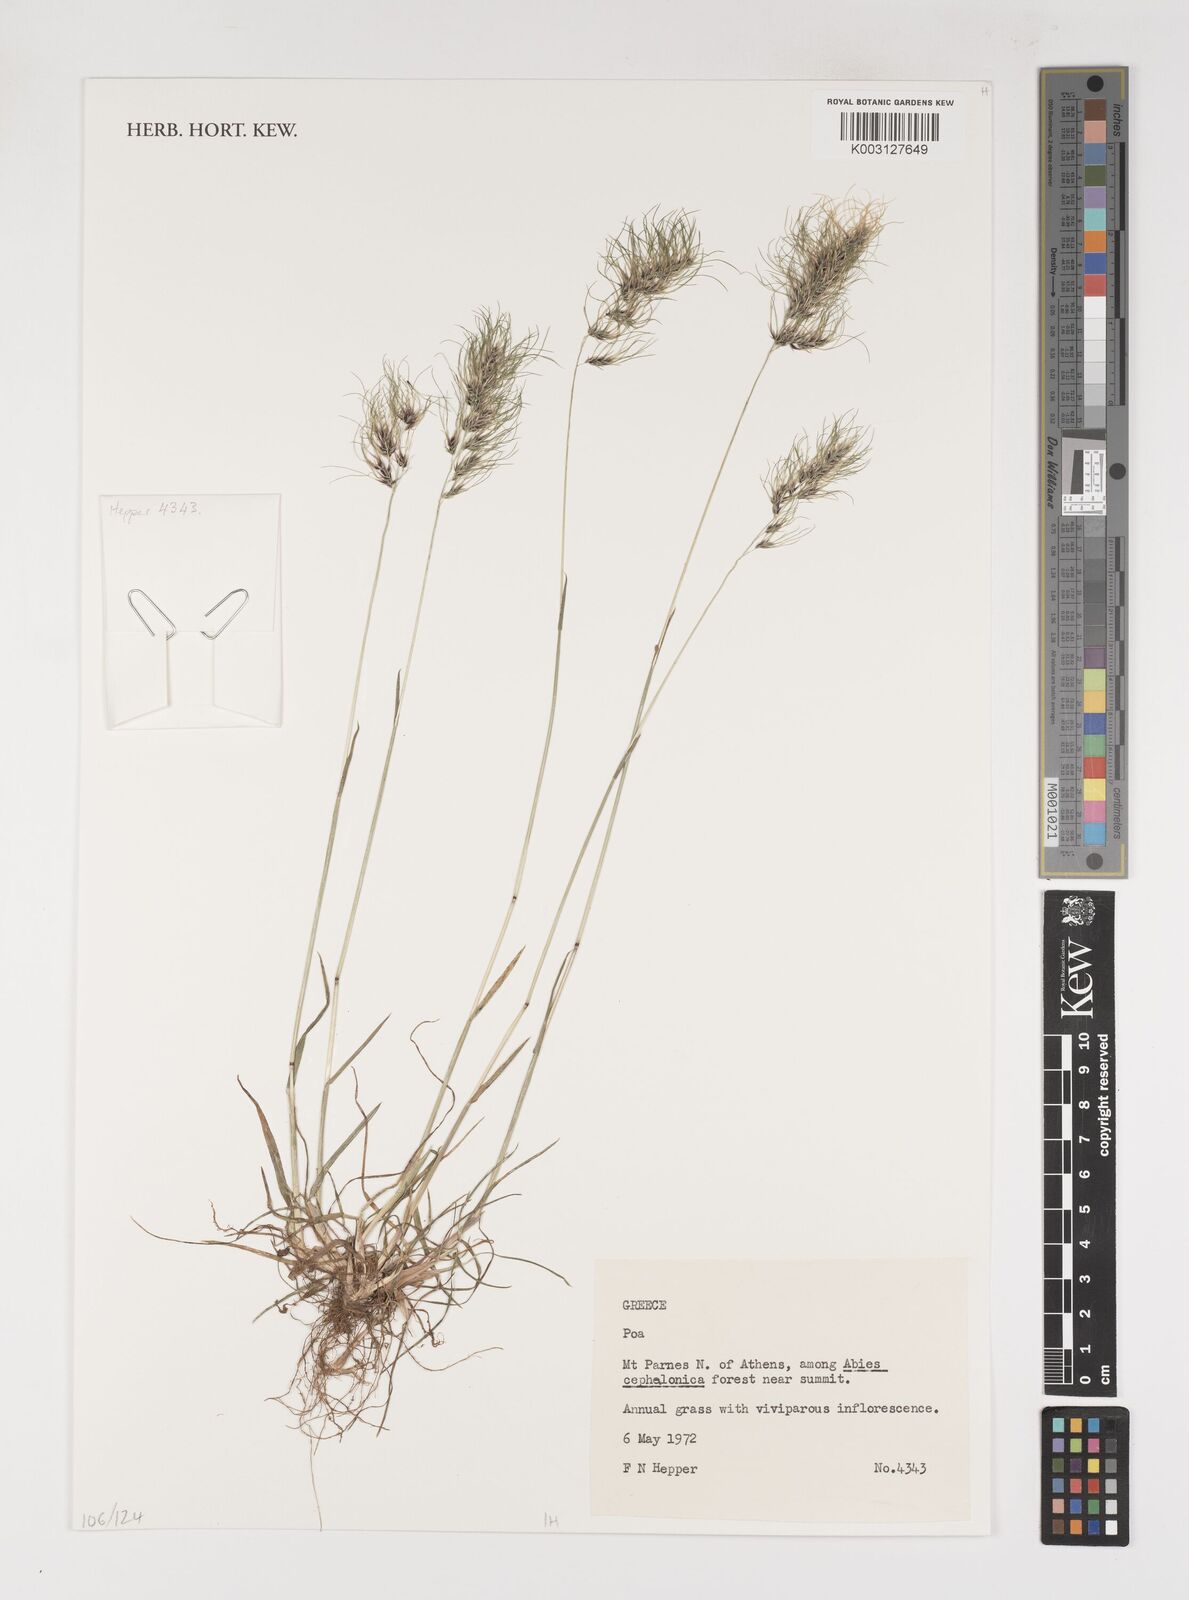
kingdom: Plantae
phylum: Tracheophyta
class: Liliopsida
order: Poales
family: Poaceae
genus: Poa
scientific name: Poa
